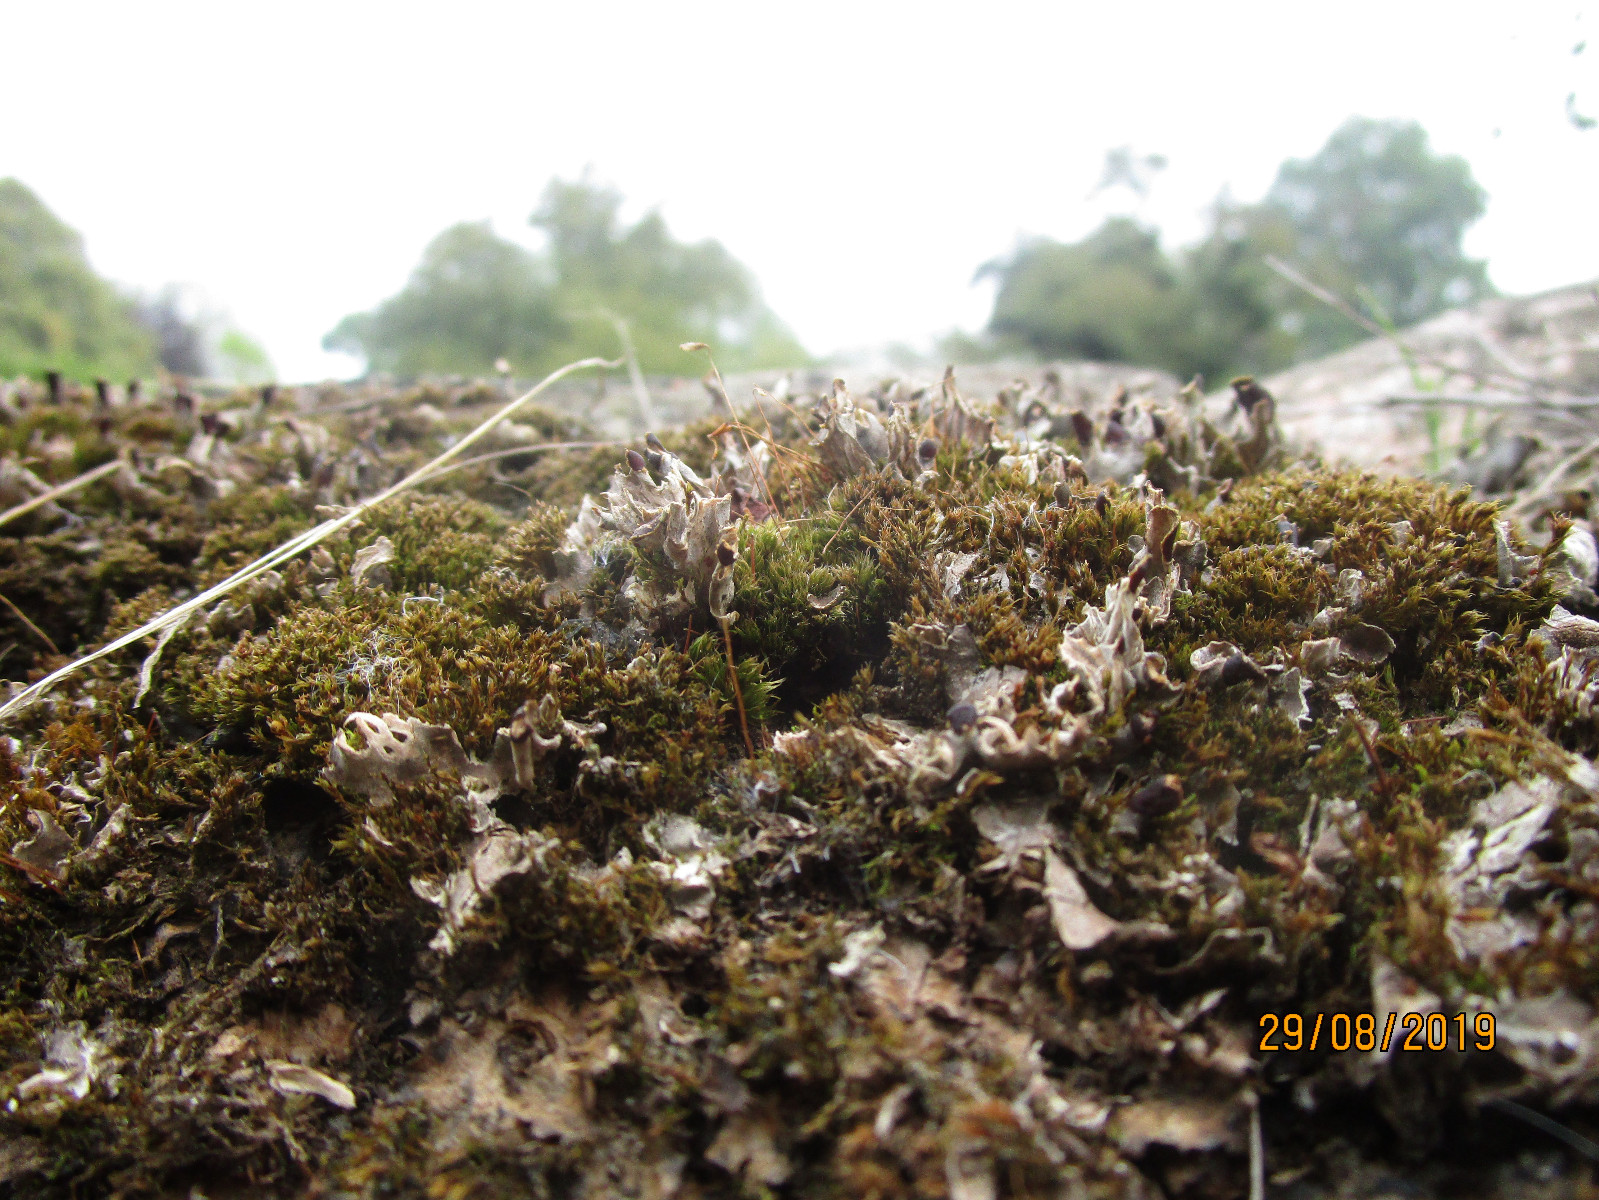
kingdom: Fungi
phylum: Ascomycota
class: Lecanoromycetes
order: Peltigerales
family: Peltigeraceae
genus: Peltigera
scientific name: Peltigera didactyla
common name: liden skjoldlav
